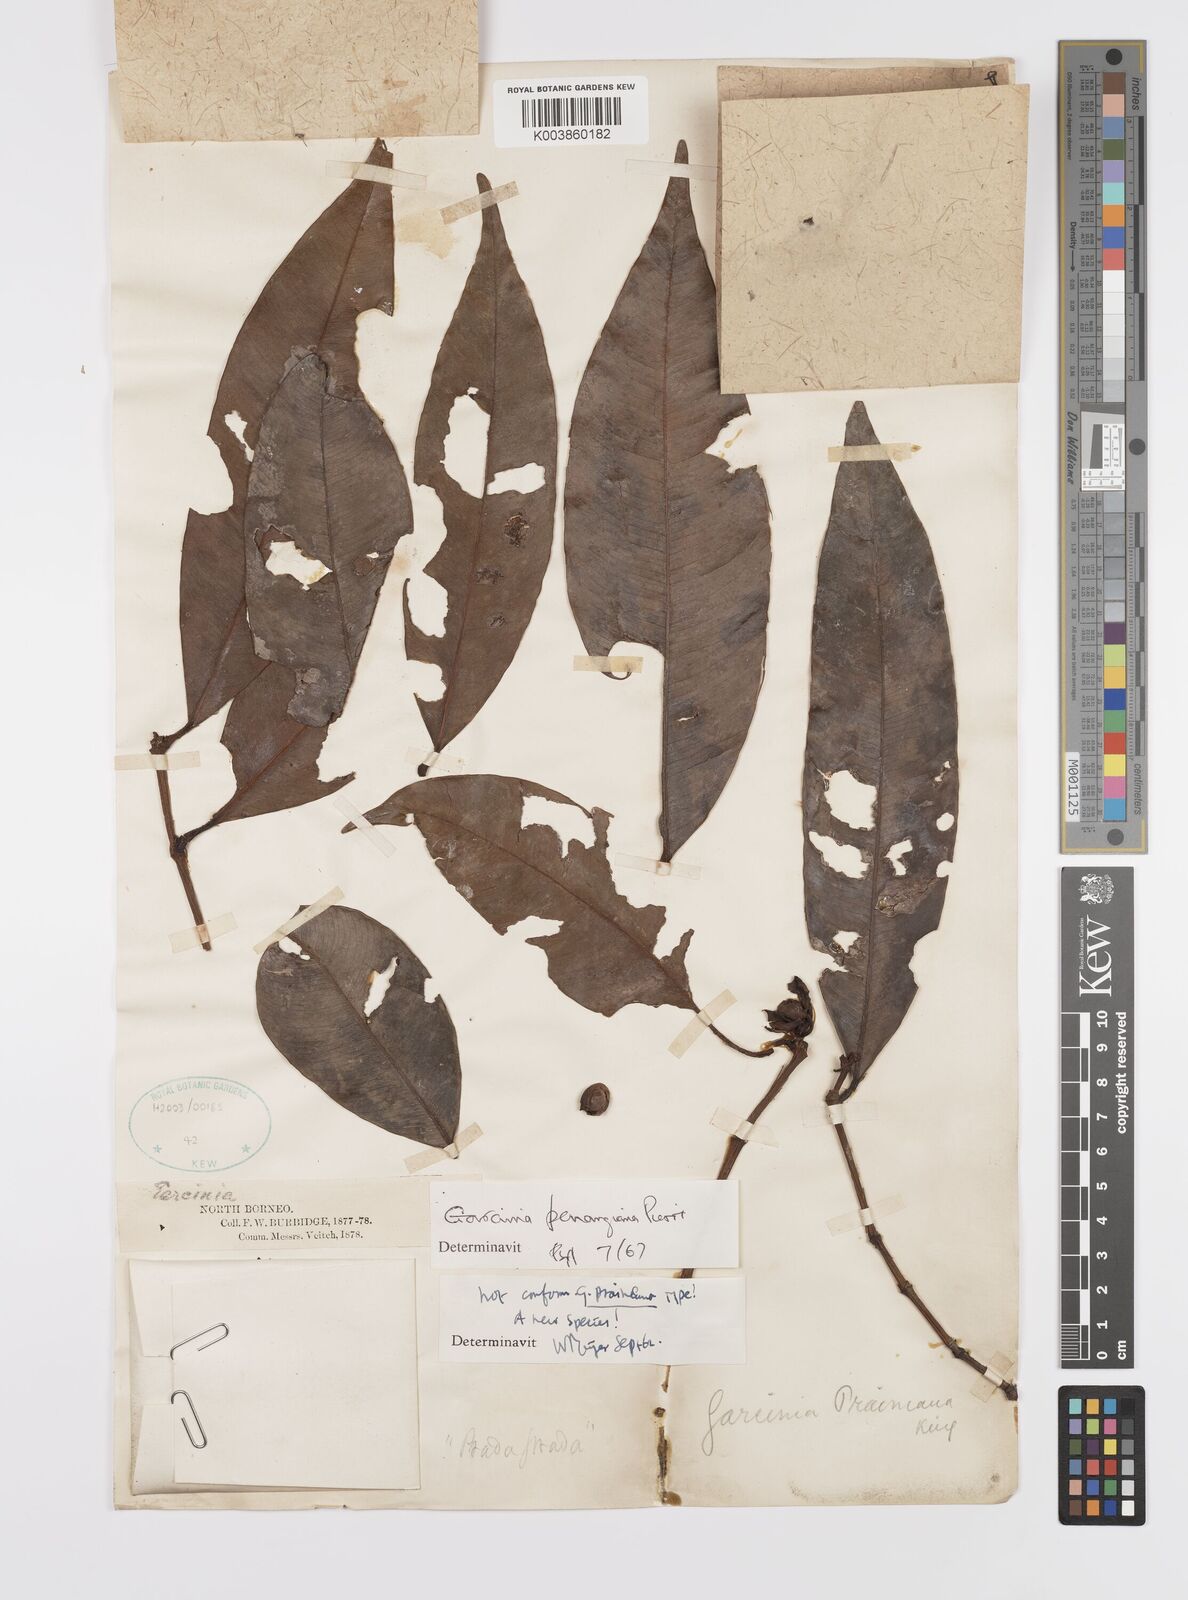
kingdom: Plantae
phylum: Tracheophyta
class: Magnoliopsida
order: Malpighiales
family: Clusiaceae
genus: Garcinia
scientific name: Garcinia penangiana
